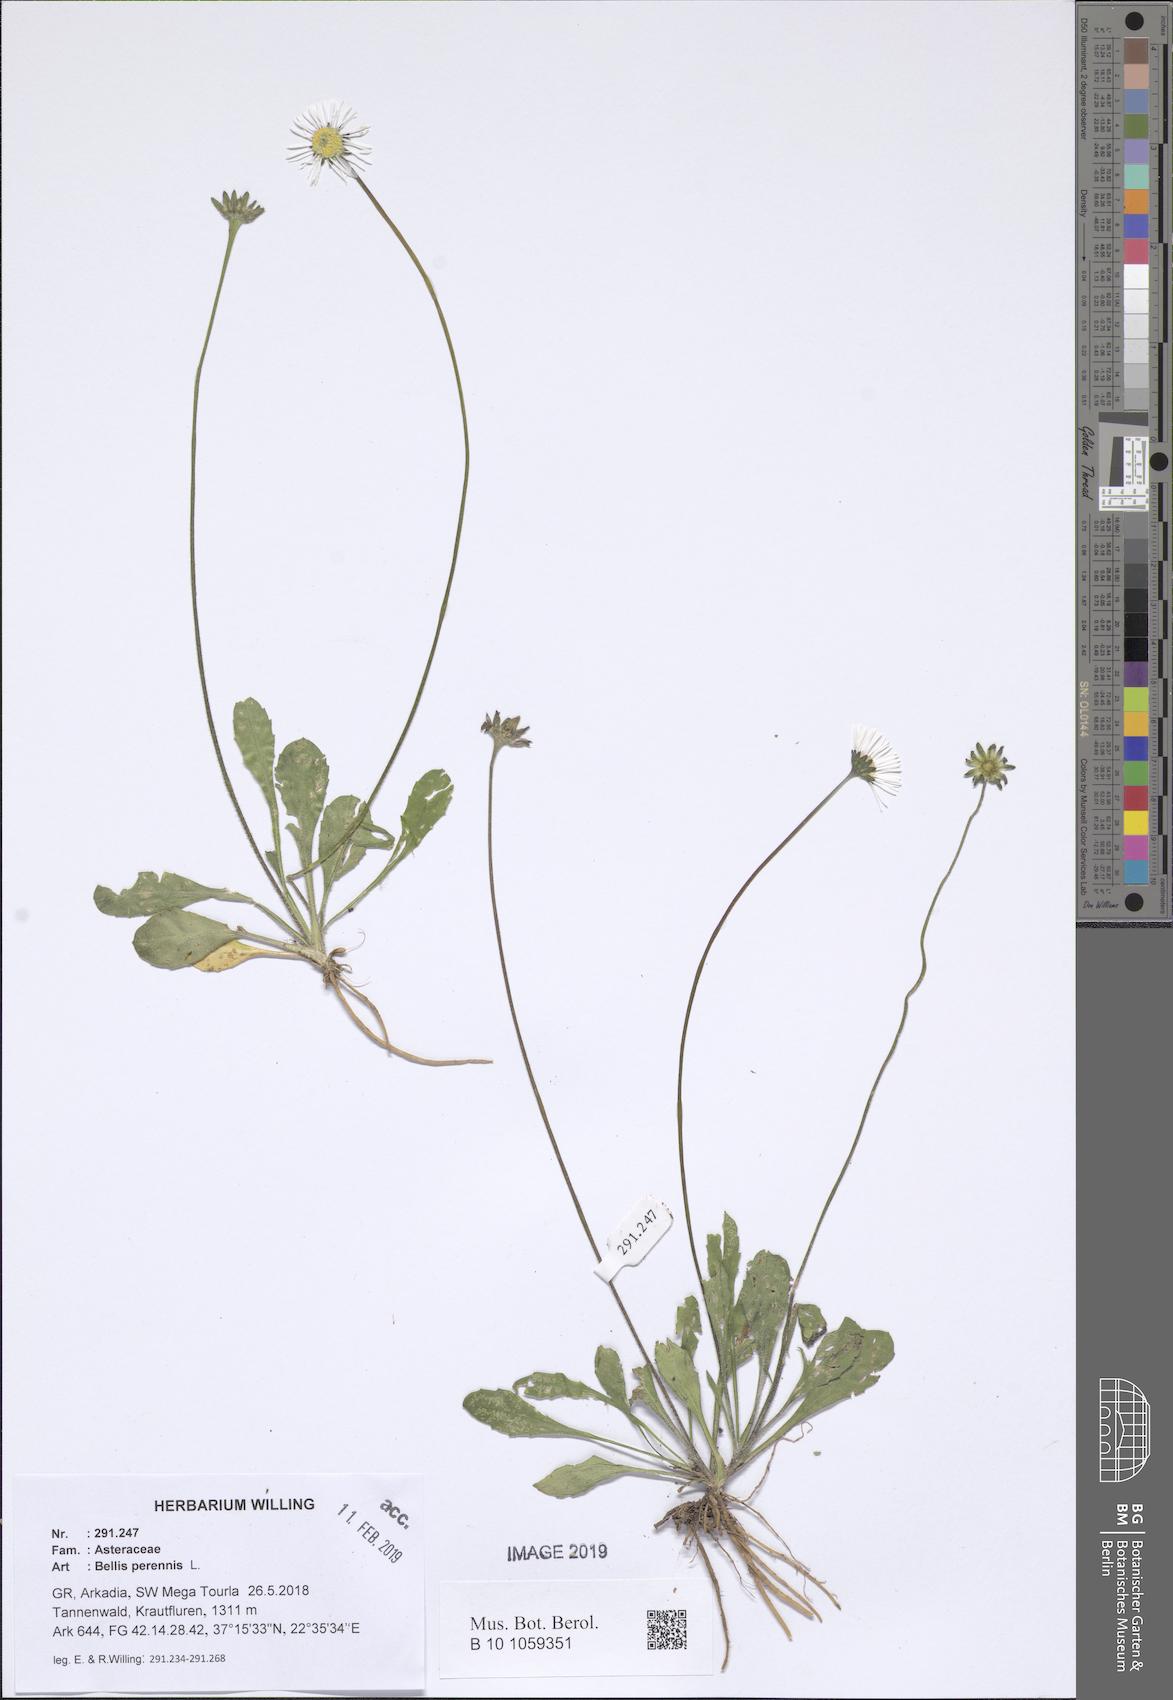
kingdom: Plantae
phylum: Tracheophyta
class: Magnoliopsida
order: Asterales
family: Asteraceae
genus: Bellis
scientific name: Bellis perennis
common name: Lawndaisy
